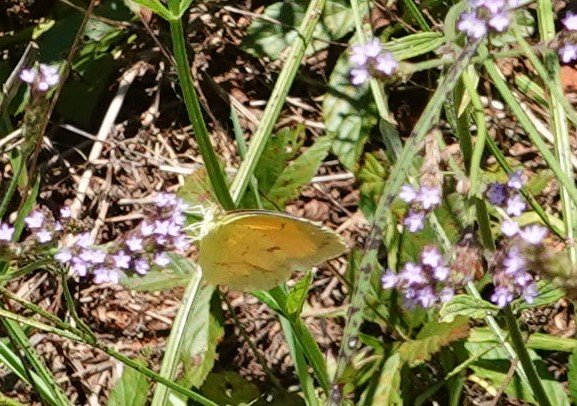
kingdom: Animalia
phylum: Arthropoda
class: Insecta
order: Lepidoptera
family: Pieridae
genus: Abaeis
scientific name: Abaeis nicippe
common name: Sleepy Orange
